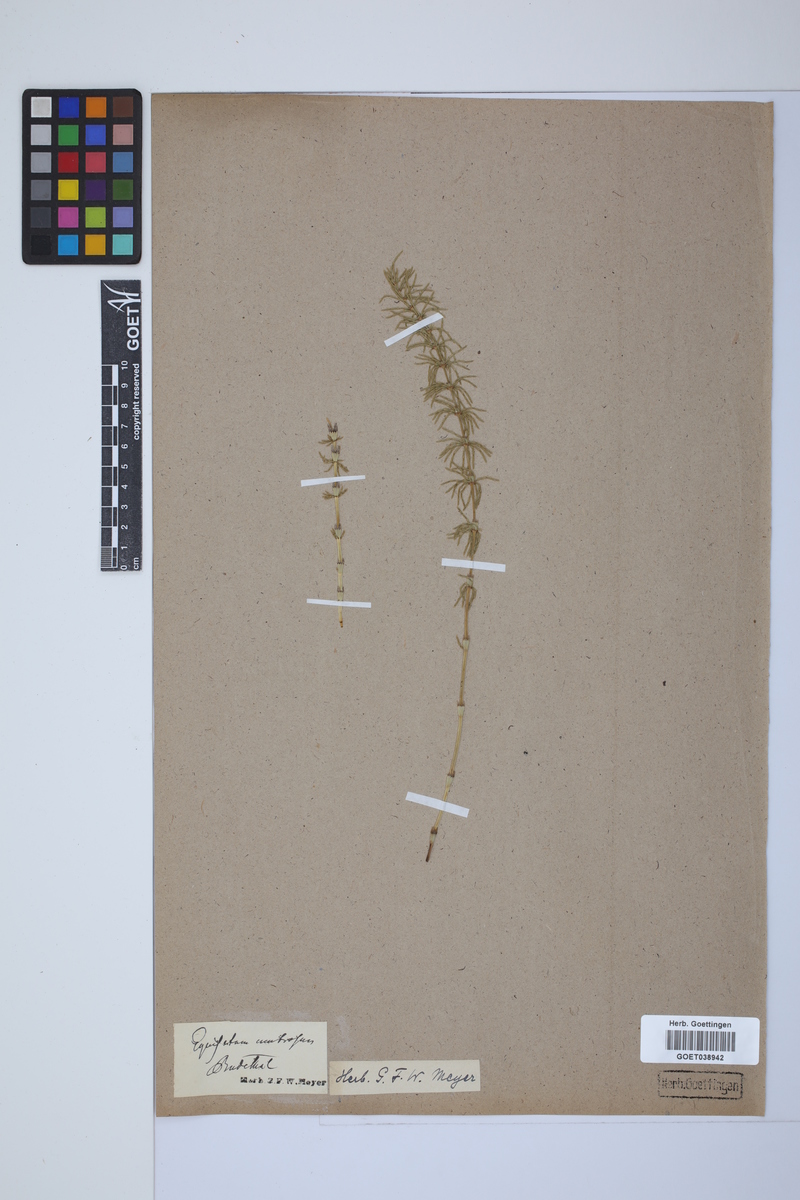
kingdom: Plantae
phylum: Tracheophyta
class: Polypodiopsida
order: Equisetales
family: Equisetaceae
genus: Equisetum
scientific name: Equisetum pratense
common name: Meadow horsetail
